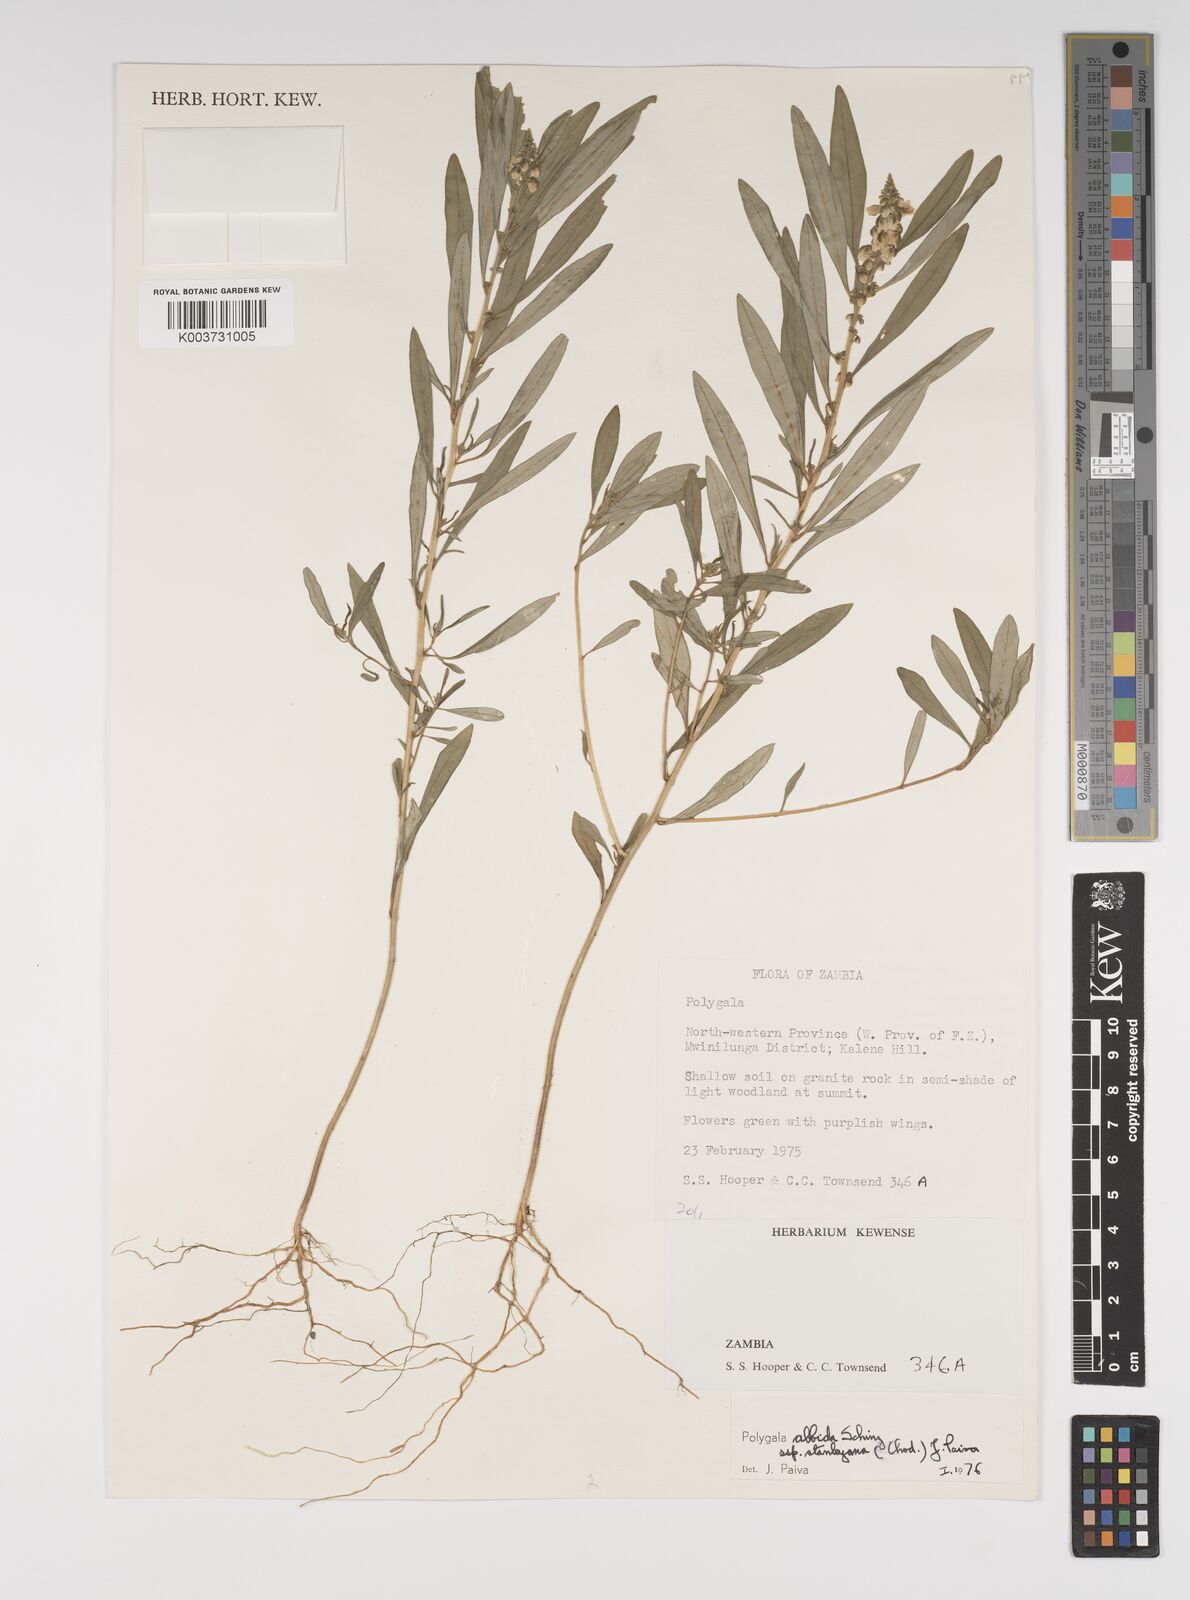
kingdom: Plantae
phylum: Tracheophyta
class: Magnoliopsida
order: Fabales
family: Polygalaceae
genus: Polygala
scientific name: Polygala albida
